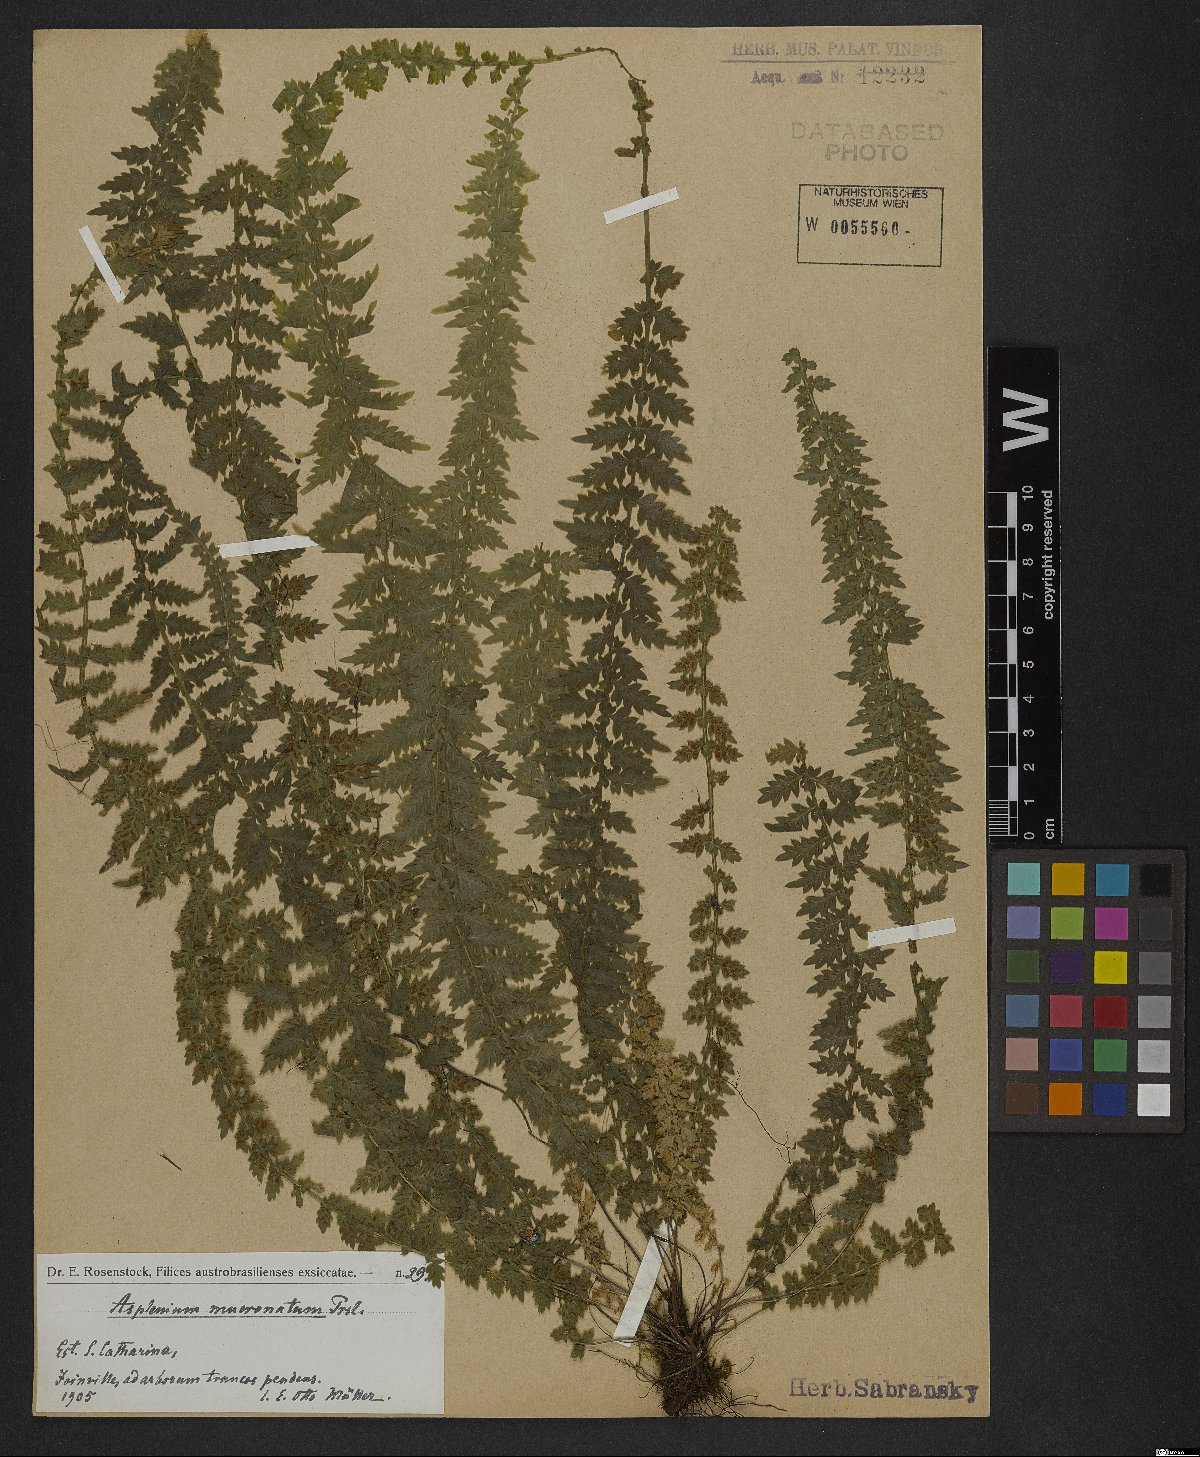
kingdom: Plantae
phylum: Tracheophyta
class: Polypodiopsida
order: Polypodiales
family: Aspleniaceae
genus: Asplenium
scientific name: Asplenium mucronatum
